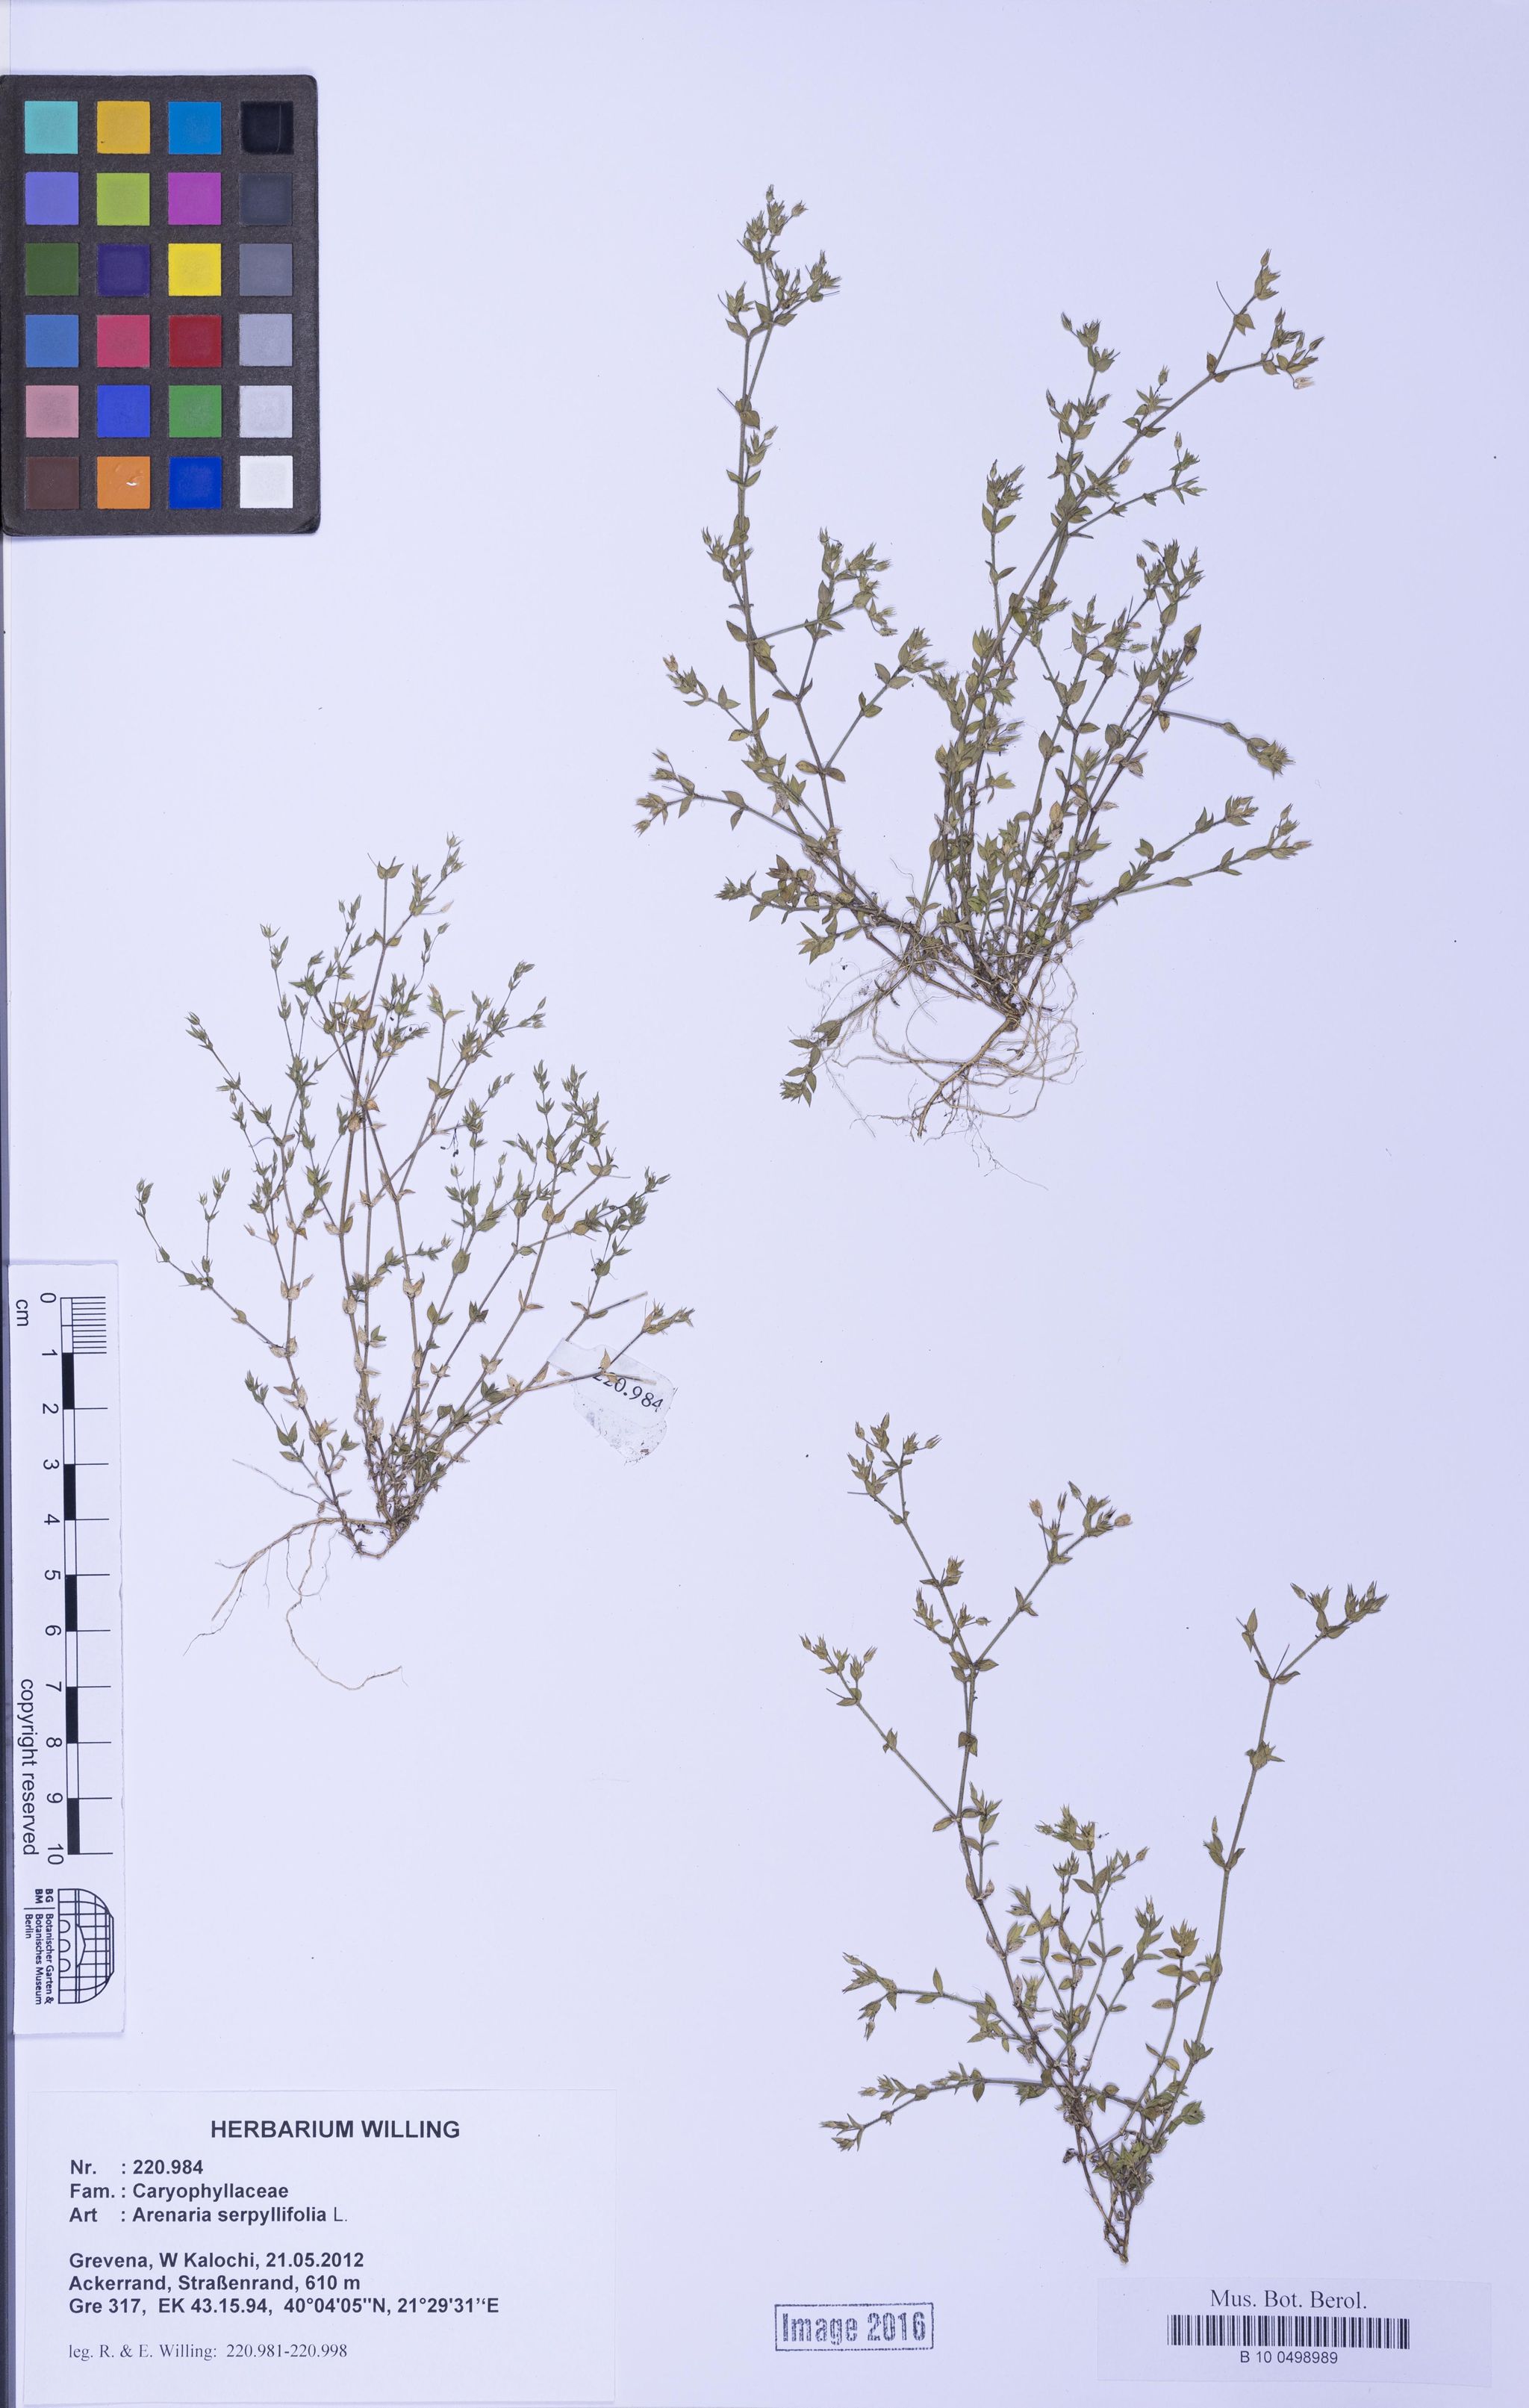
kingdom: Plantae
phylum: Tracheophyta
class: Magnoliopsida
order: Caryophyllales
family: Caryophyllaceae
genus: Arenaria
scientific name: Arenaria serpyllifolia
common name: Thyme-leaved sandwort
